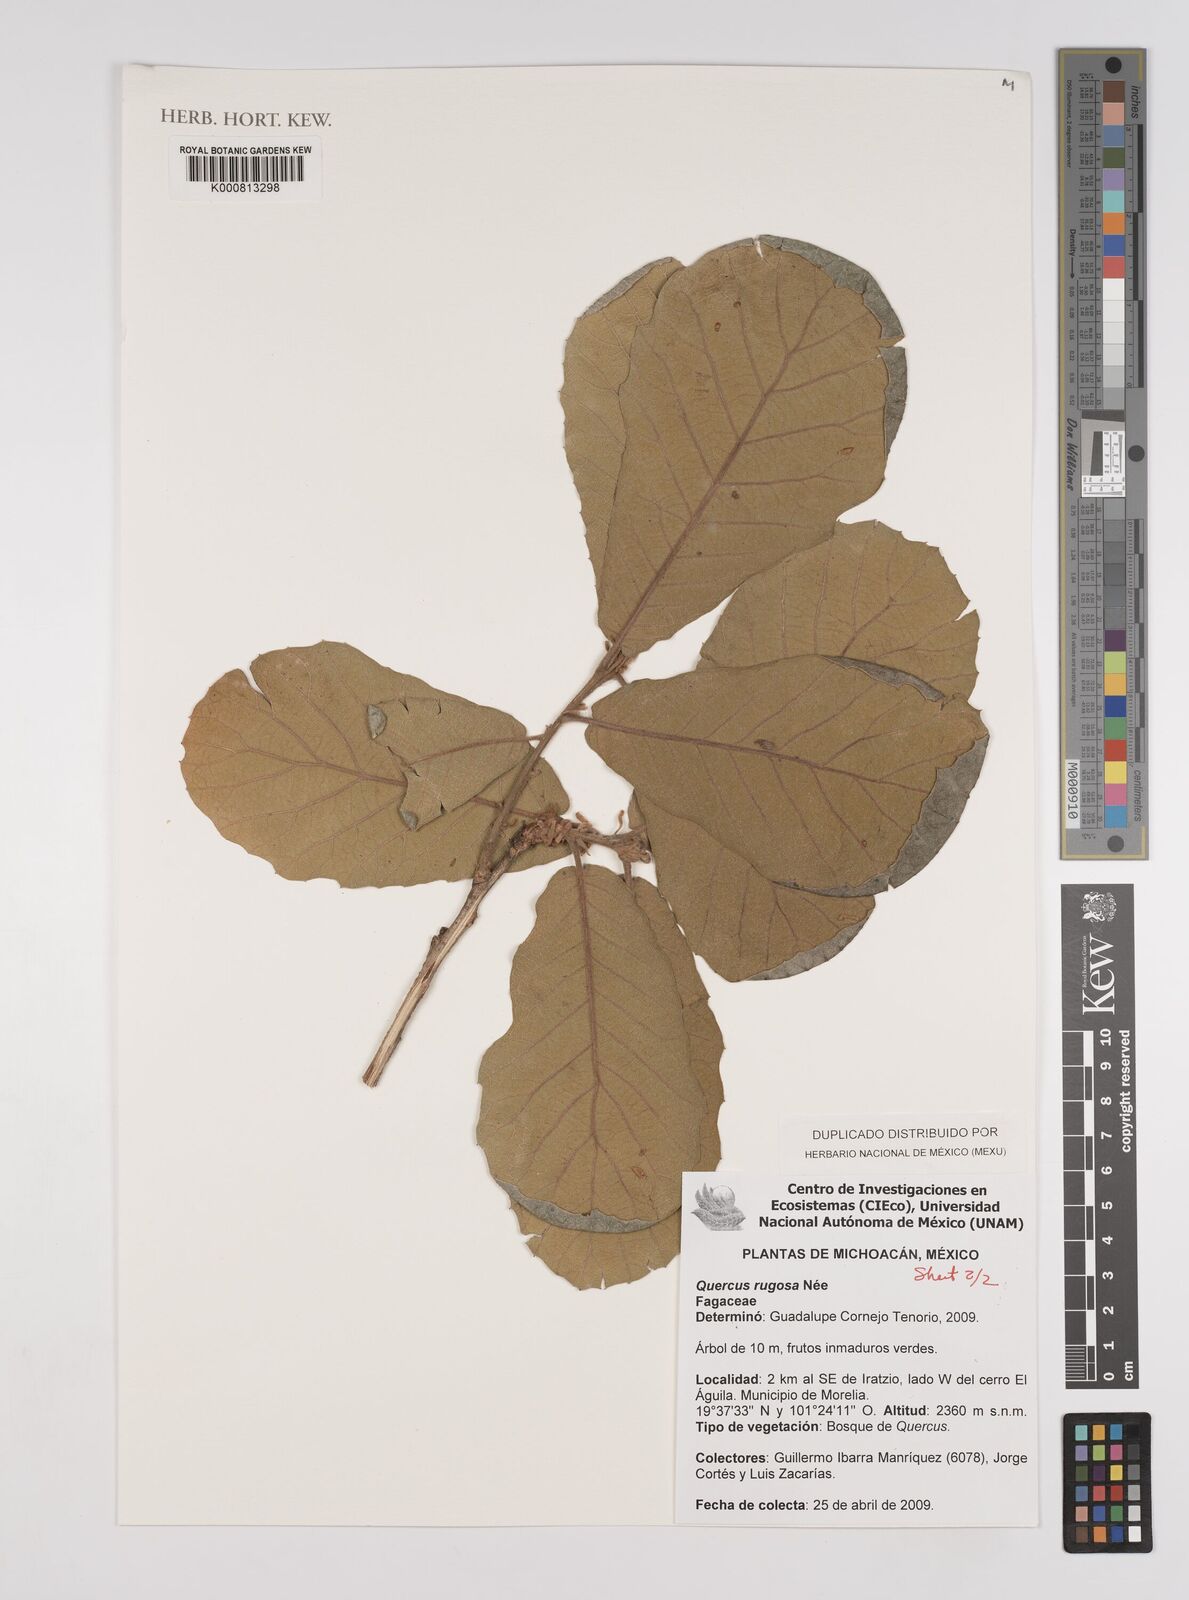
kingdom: Plantae
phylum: Tracheophyta
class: Magnoliopsida
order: Fagales
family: Fagaceae
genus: Quercus
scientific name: Quercus
